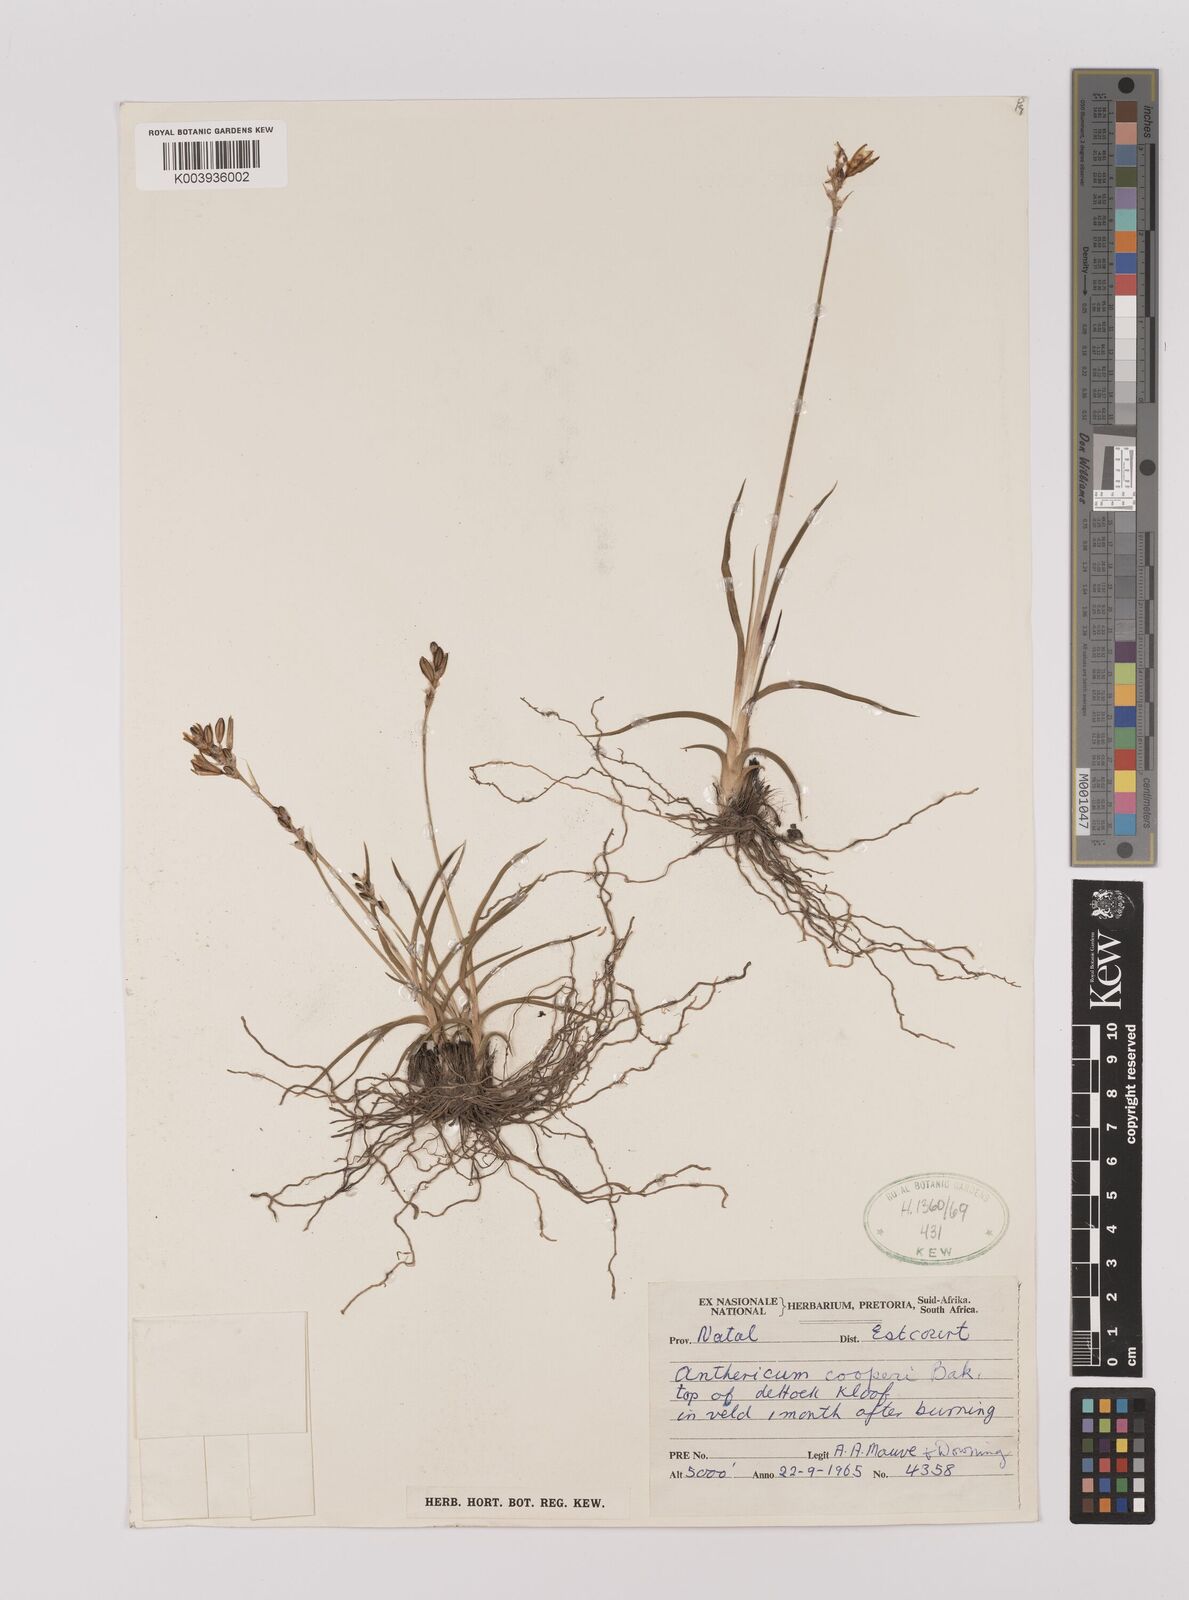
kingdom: Plantae
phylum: Tracheophyta
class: Liliopsida
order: Asparagales
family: Asparagaceae
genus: Chlorophytum
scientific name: Chlorophytum cooperi
